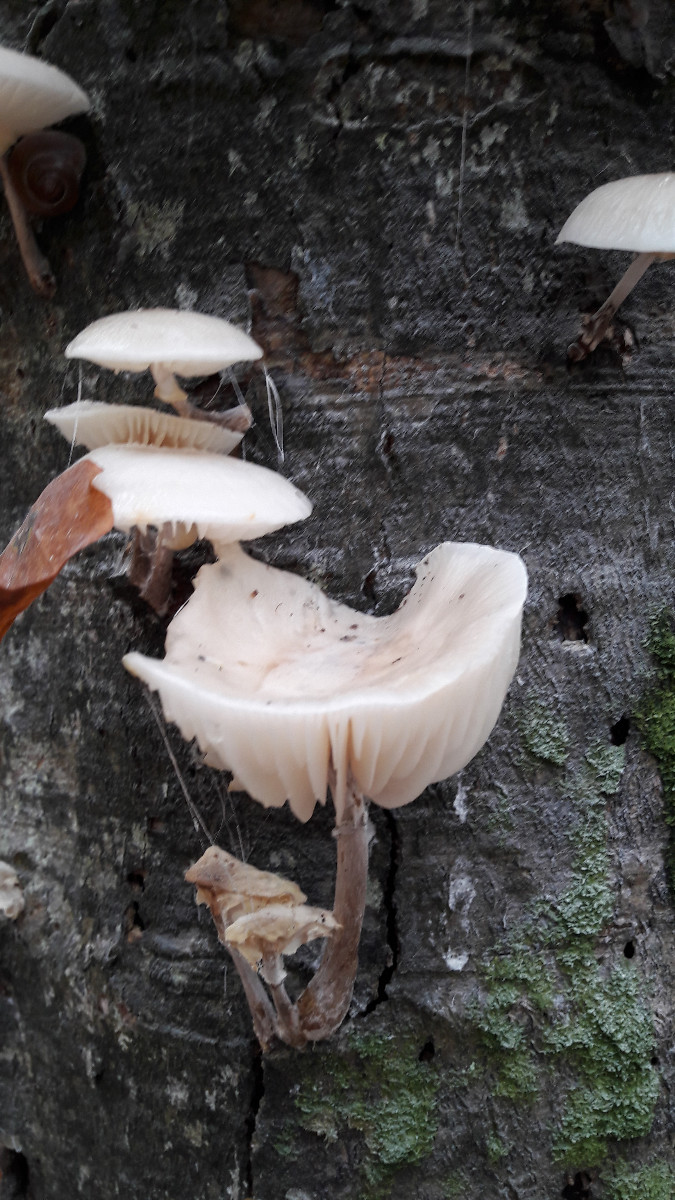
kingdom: Fungi
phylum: Basidiomycota
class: Agaricomycetes
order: Agaricales
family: Physalacriaceae
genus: Mucidula
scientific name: Mucidula mucida
